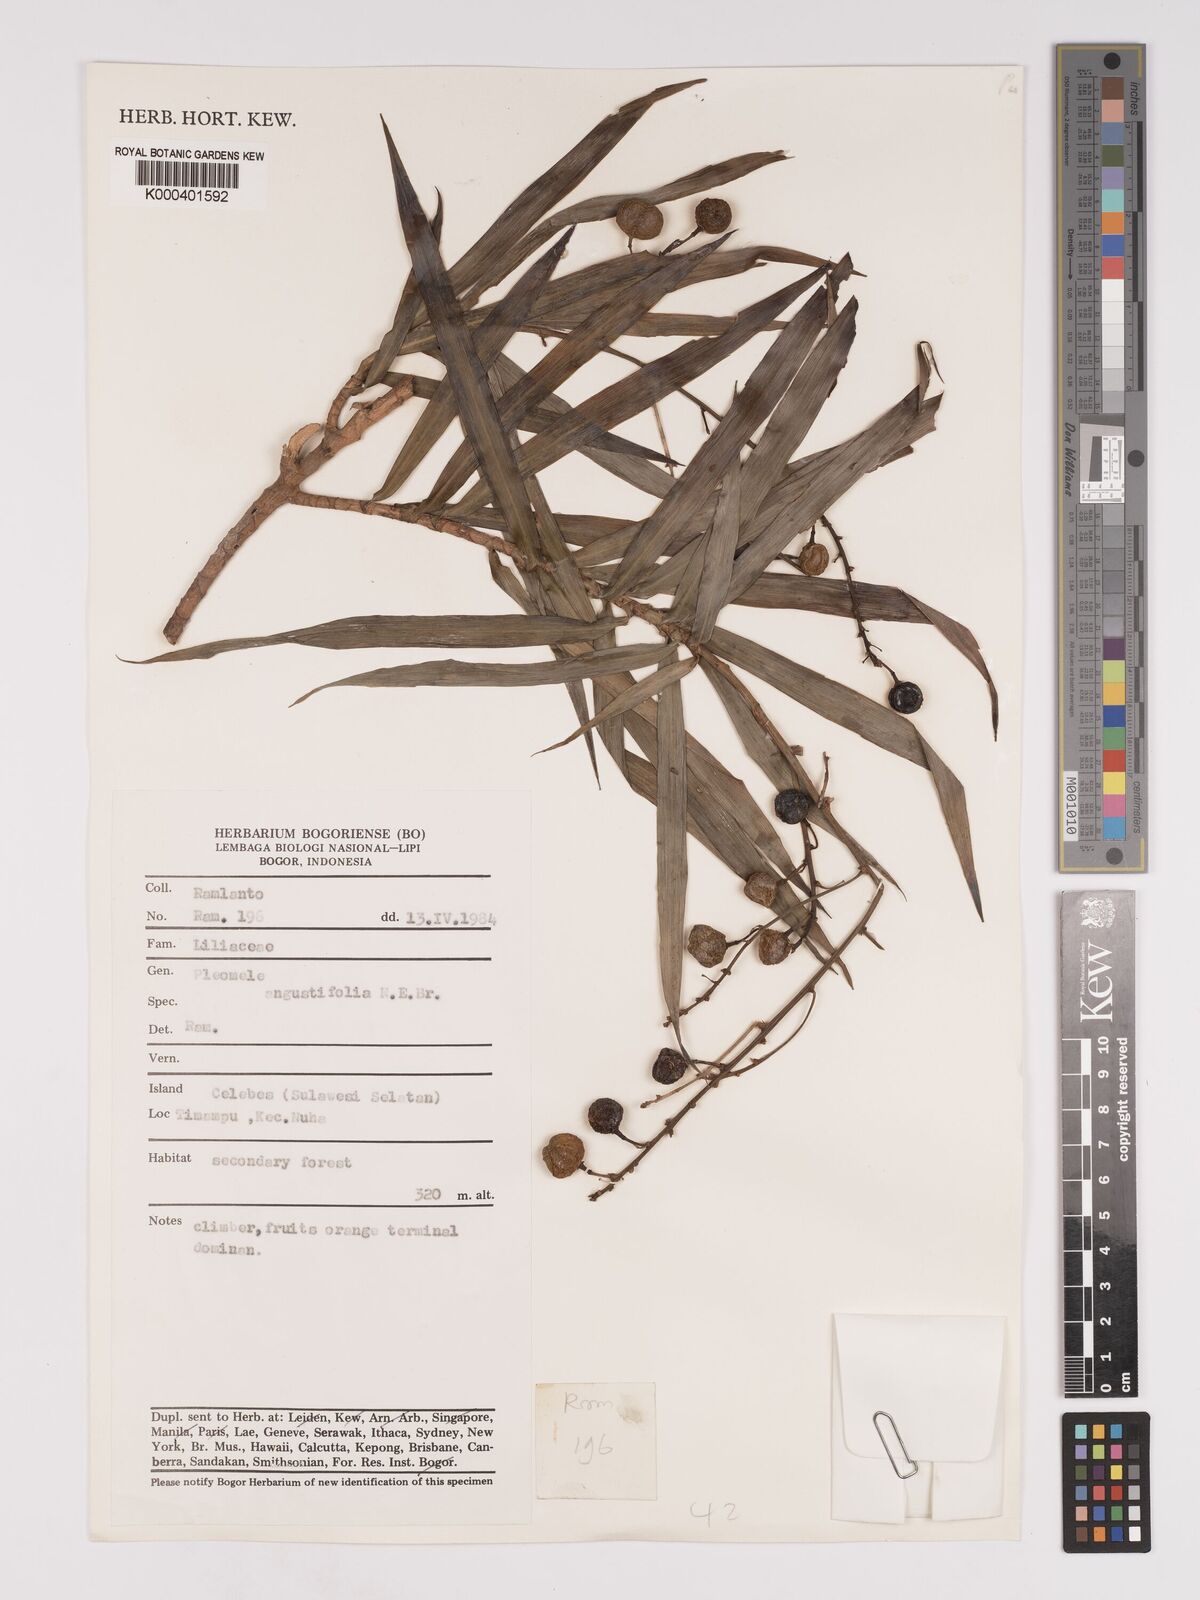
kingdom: Plantae
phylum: Tracheophyta
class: Liliopsida
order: Asparagales
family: Asparagaceae
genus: Dracaena
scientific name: Dracaena angustifolia
